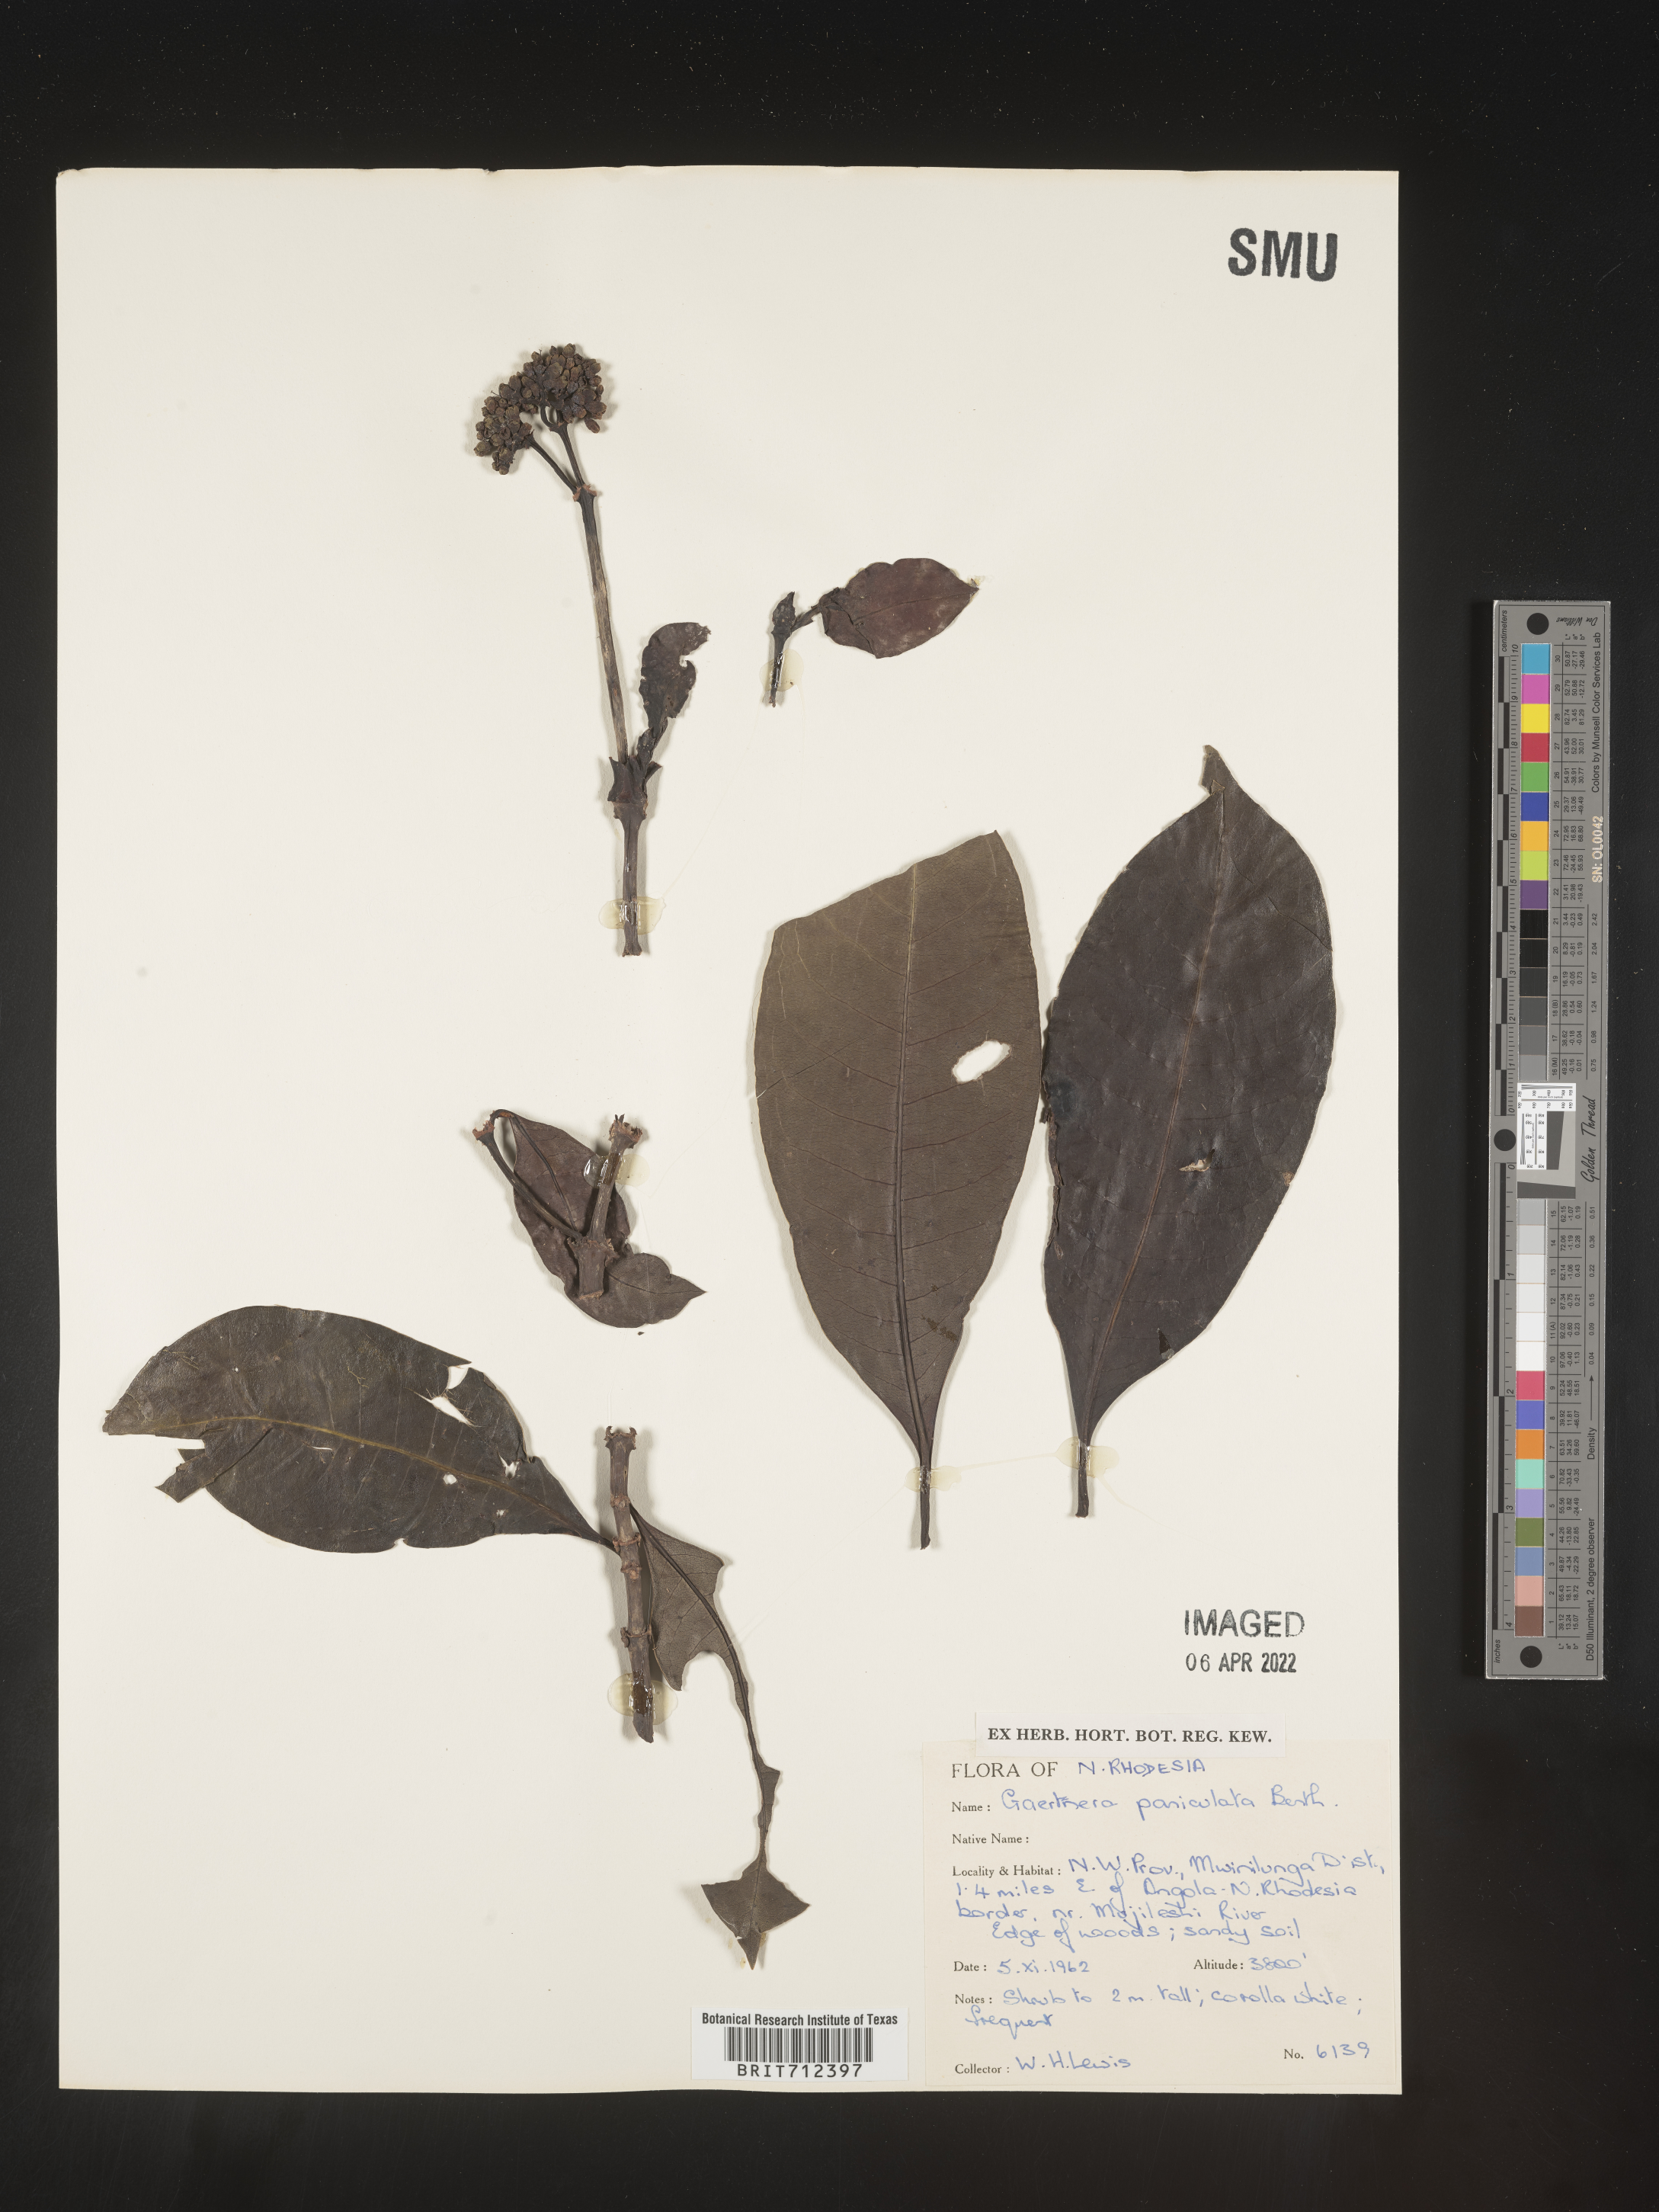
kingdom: Plantae
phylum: Tracheophyta
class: Magnoliopsida
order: Gentianales
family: Rubiaceae
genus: Gaertnera
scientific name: Gaertnera
